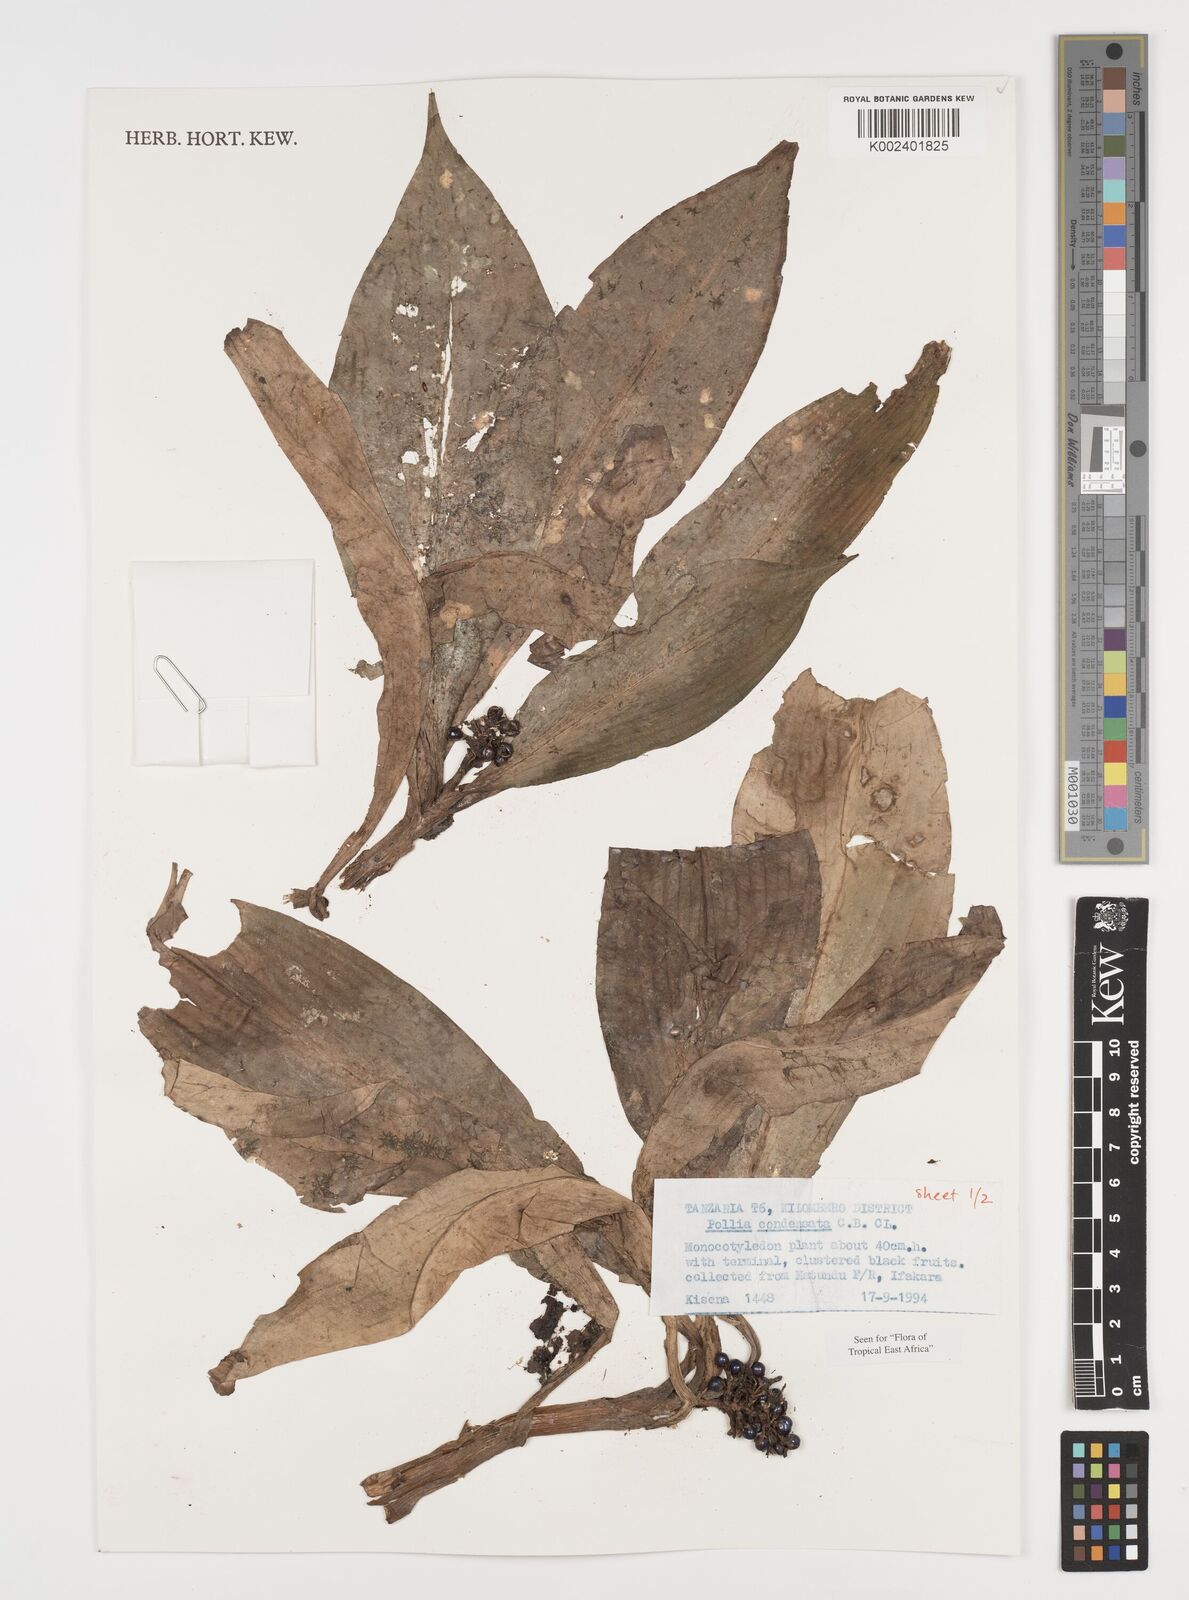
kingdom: Plantae
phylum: Tracheophyta
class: Liliopsida
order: Commelinales
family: Commelinaceae
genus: Pollia
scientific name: Pollia condensata
